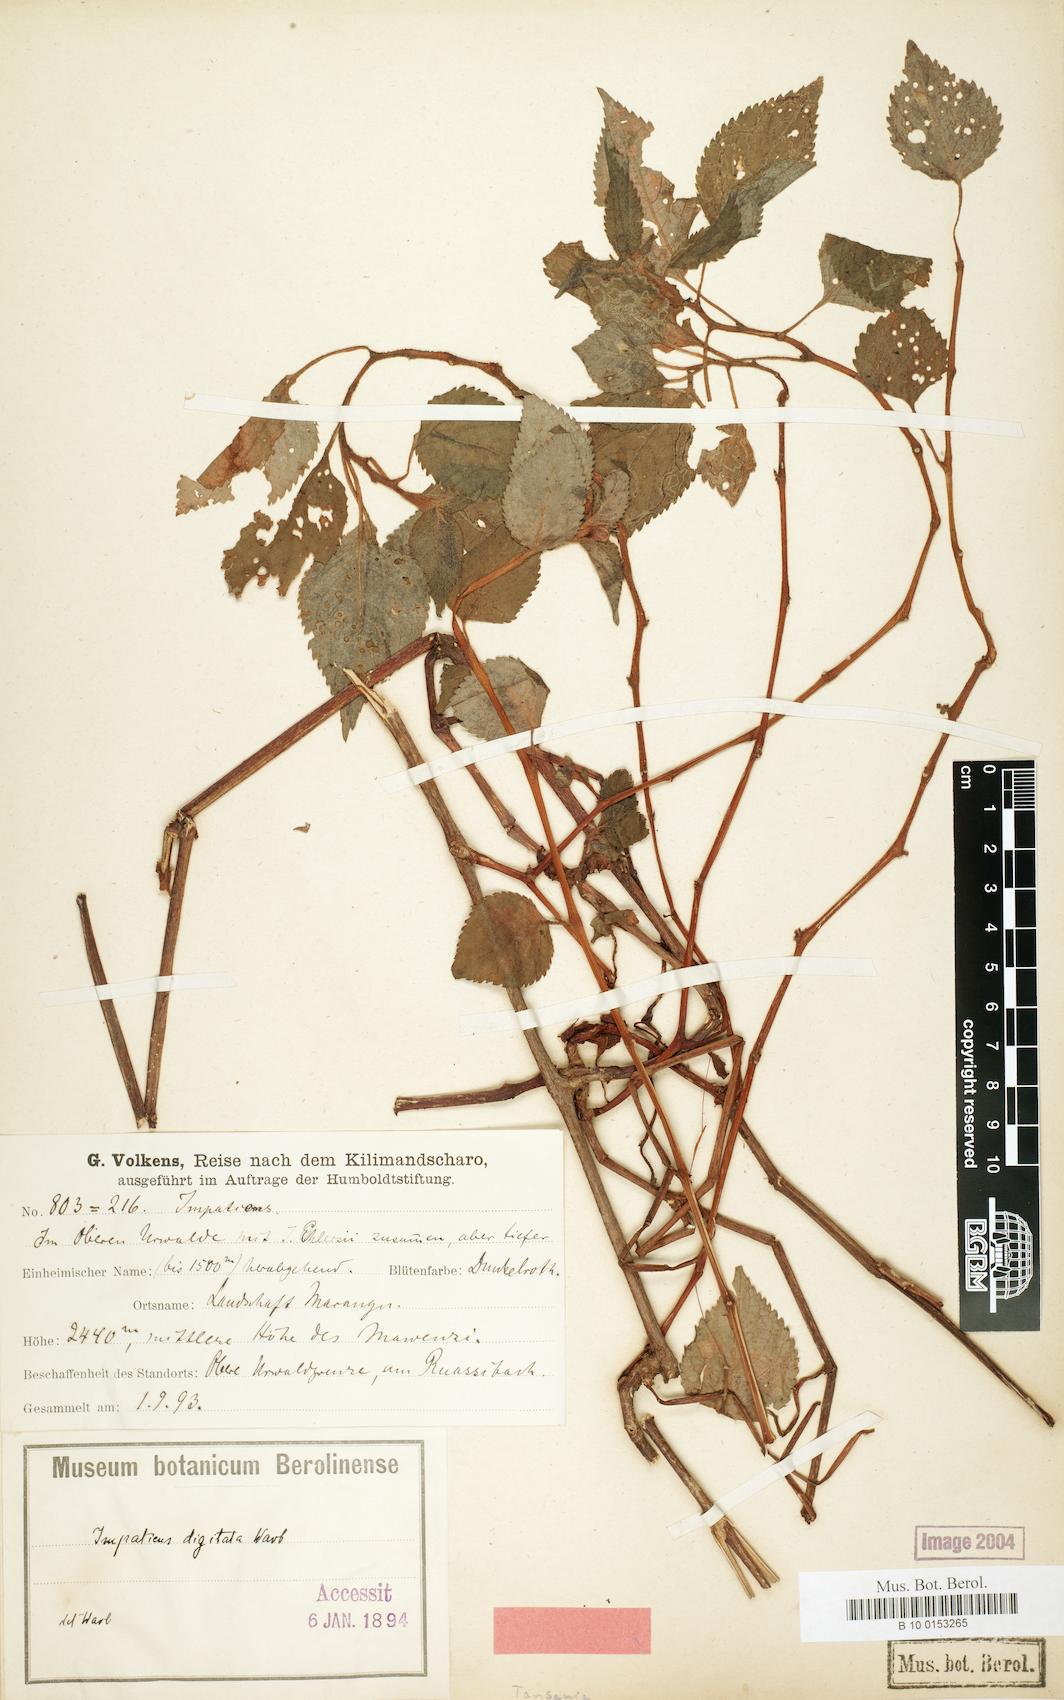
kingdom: Plantae
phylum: Tracheophyta
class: Magnoliopsida
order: Ericales
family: Balsaminaceae
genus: Impatiens
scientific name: Impatiens digitata
